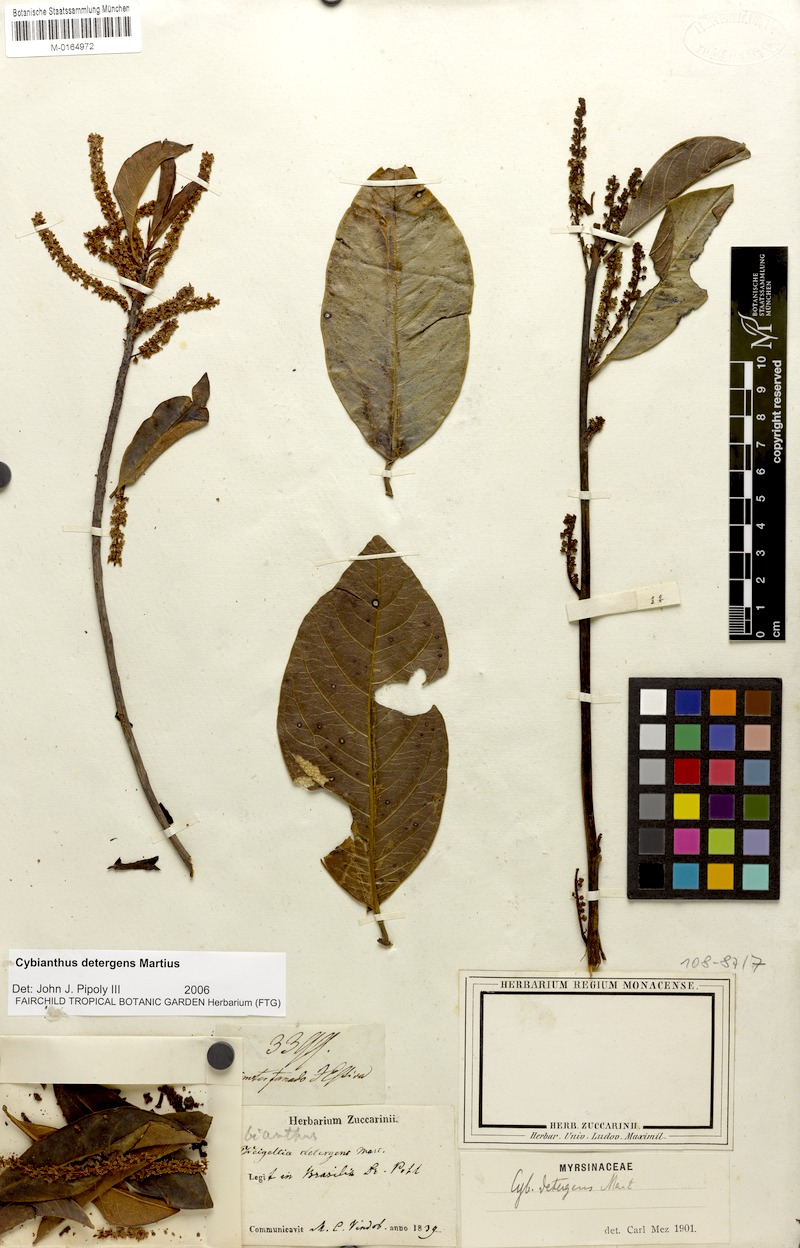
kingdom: Plantae
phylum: Tracheophyta
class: Magnoliopsida
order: Ericales
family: Primulaceae
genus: Cybianthus
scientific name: Cybianthus detergens
